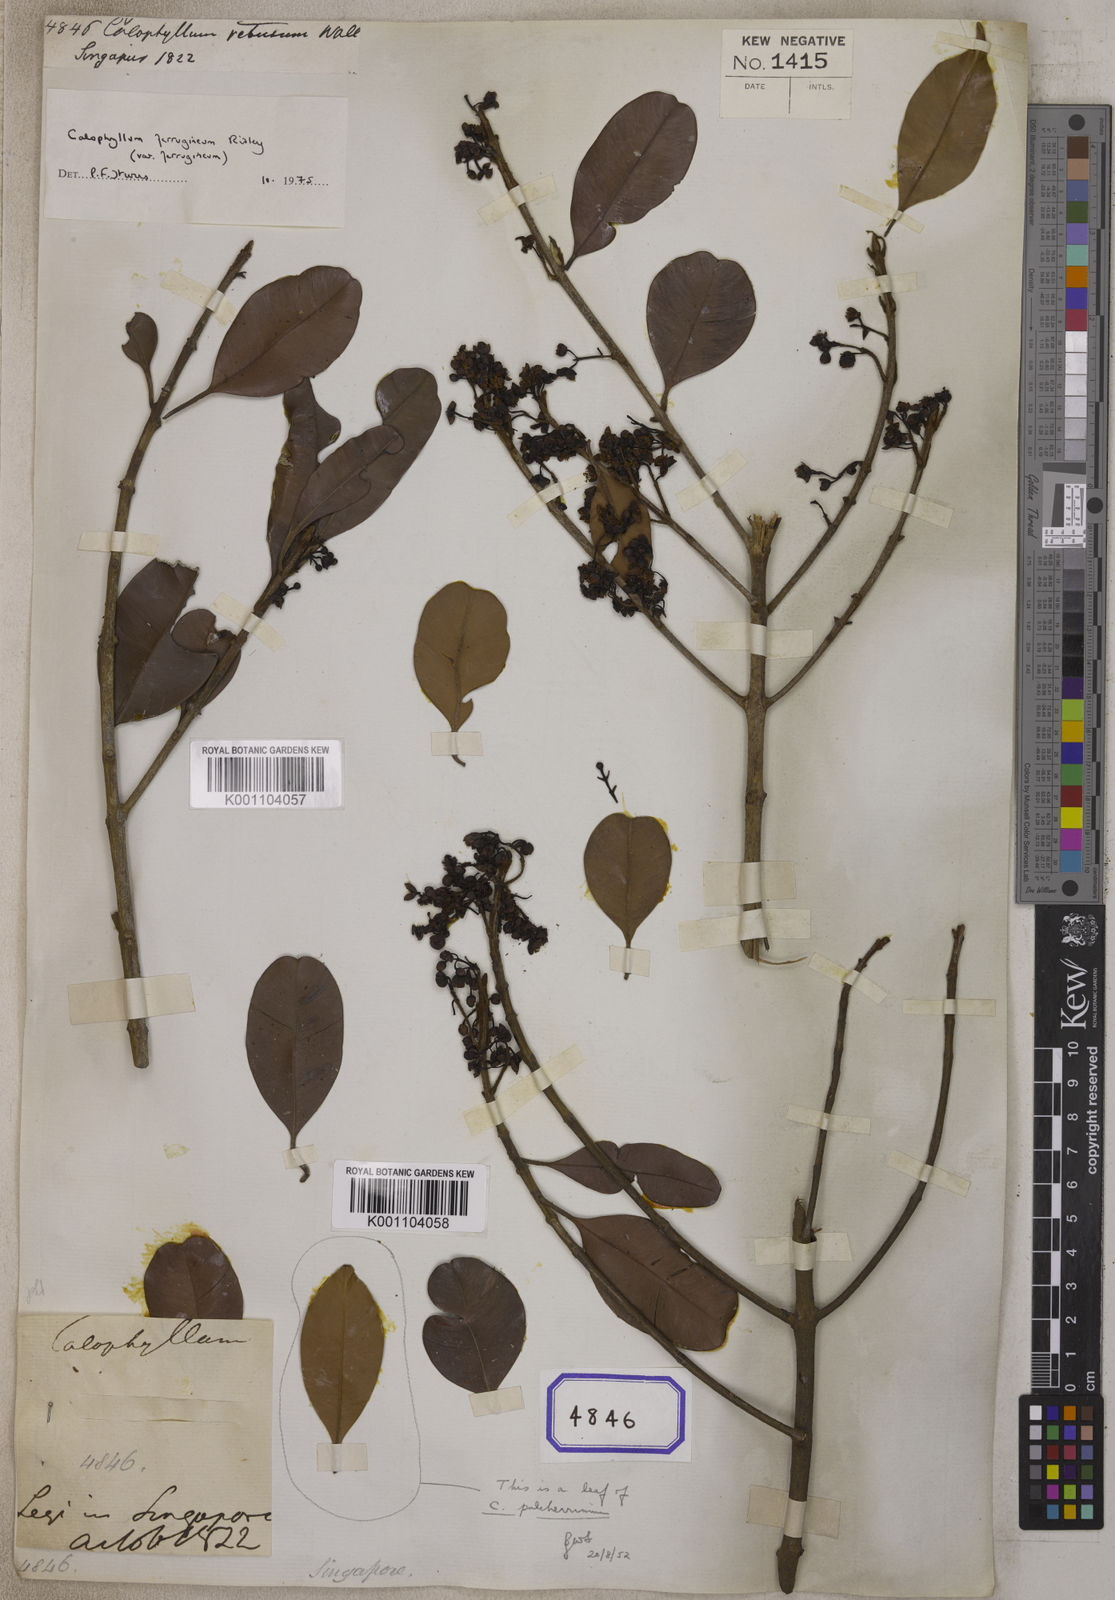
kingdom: Plantae
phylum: Tracheophyta
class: Magnoliopsida
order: Malpighiales
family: Calophyllaceae
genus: Calophyllum
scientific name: Calophyllum
